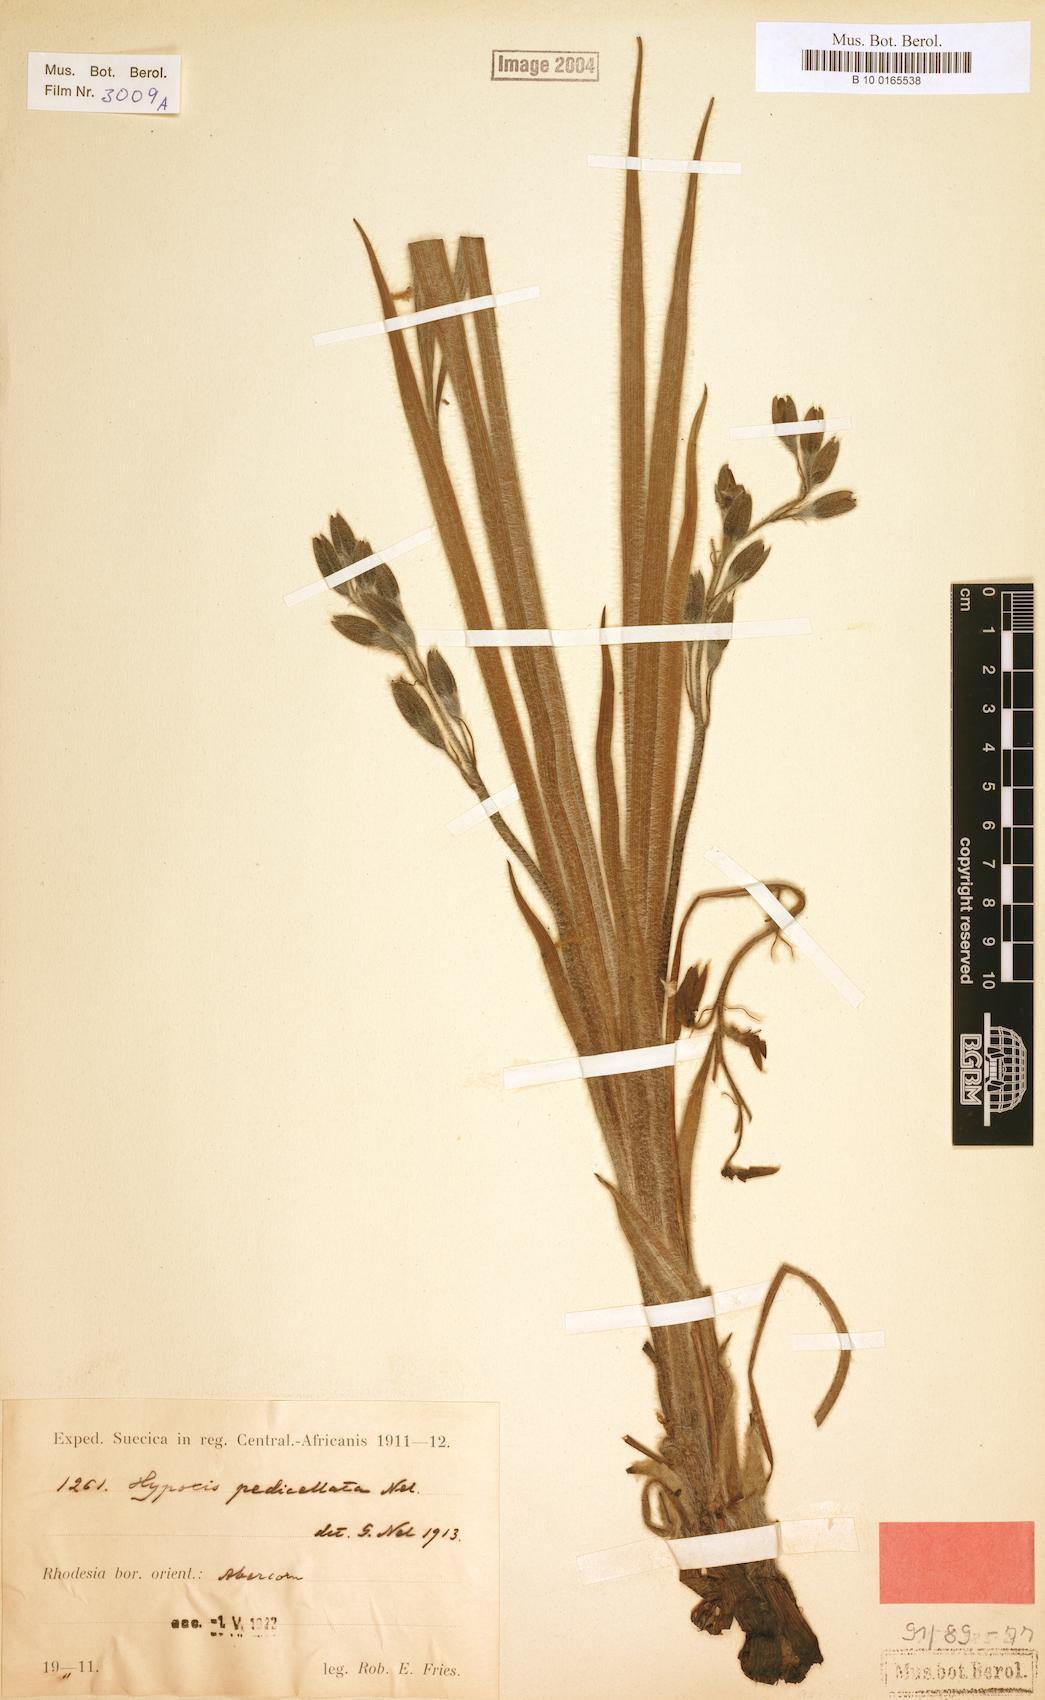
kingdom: Plantae
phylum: Tracheophyta
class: Liliopsida
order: Asparagales
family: Hypoxidaceae
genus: Hypoxis
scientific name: Hypoxis fischeri
